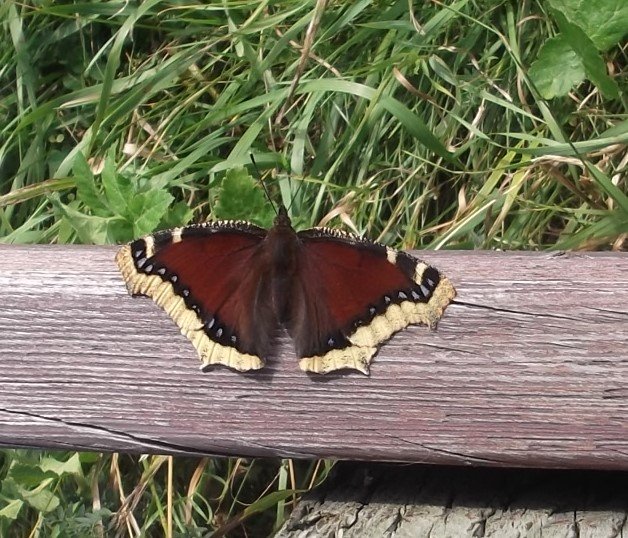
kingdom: Animalia
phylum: Arthropoda
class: Insecta
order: Lepidoptera
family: Nymphalidae
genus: Nymphalis
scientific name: Nymphalis antiopa
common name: Mourning Cloak
